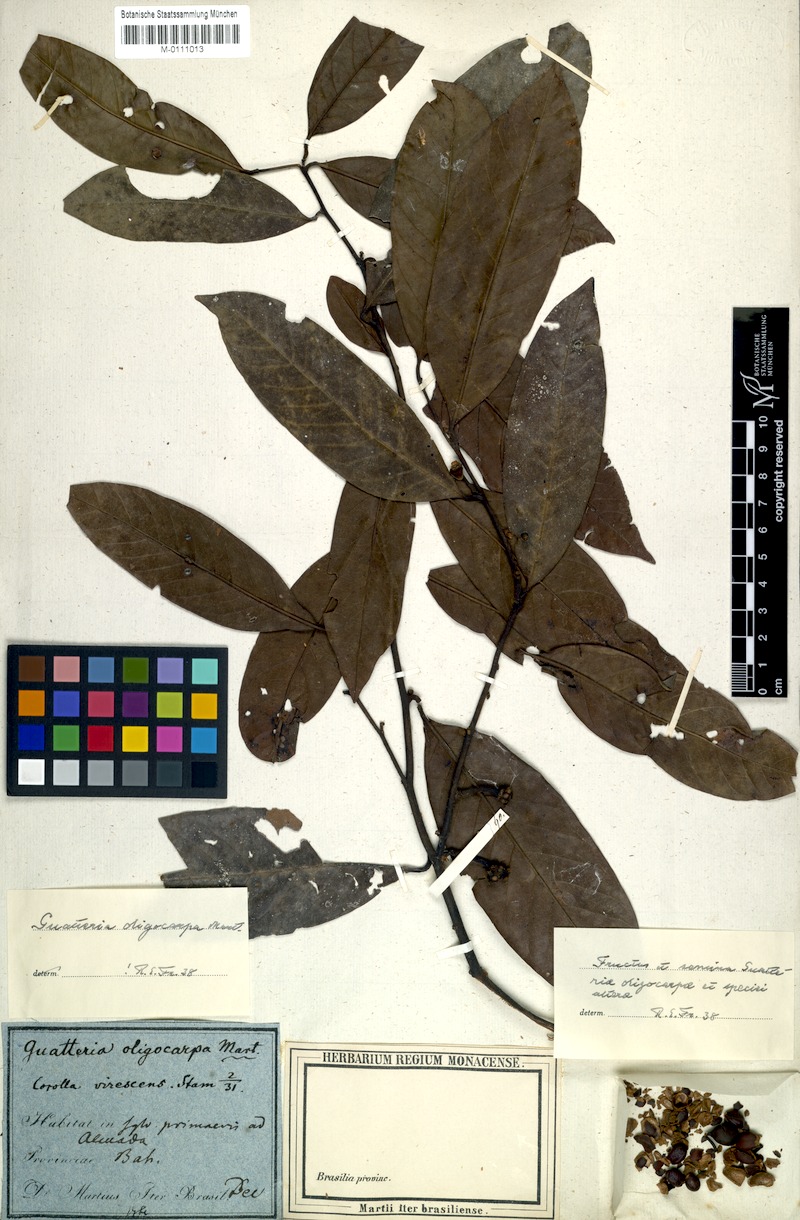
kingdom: Plantae
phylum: Tracheophyta
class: Magnoliopsida
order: Magnoliales
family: Annonaceae
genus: Guatteria
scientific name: Guatteria oligocarpa
